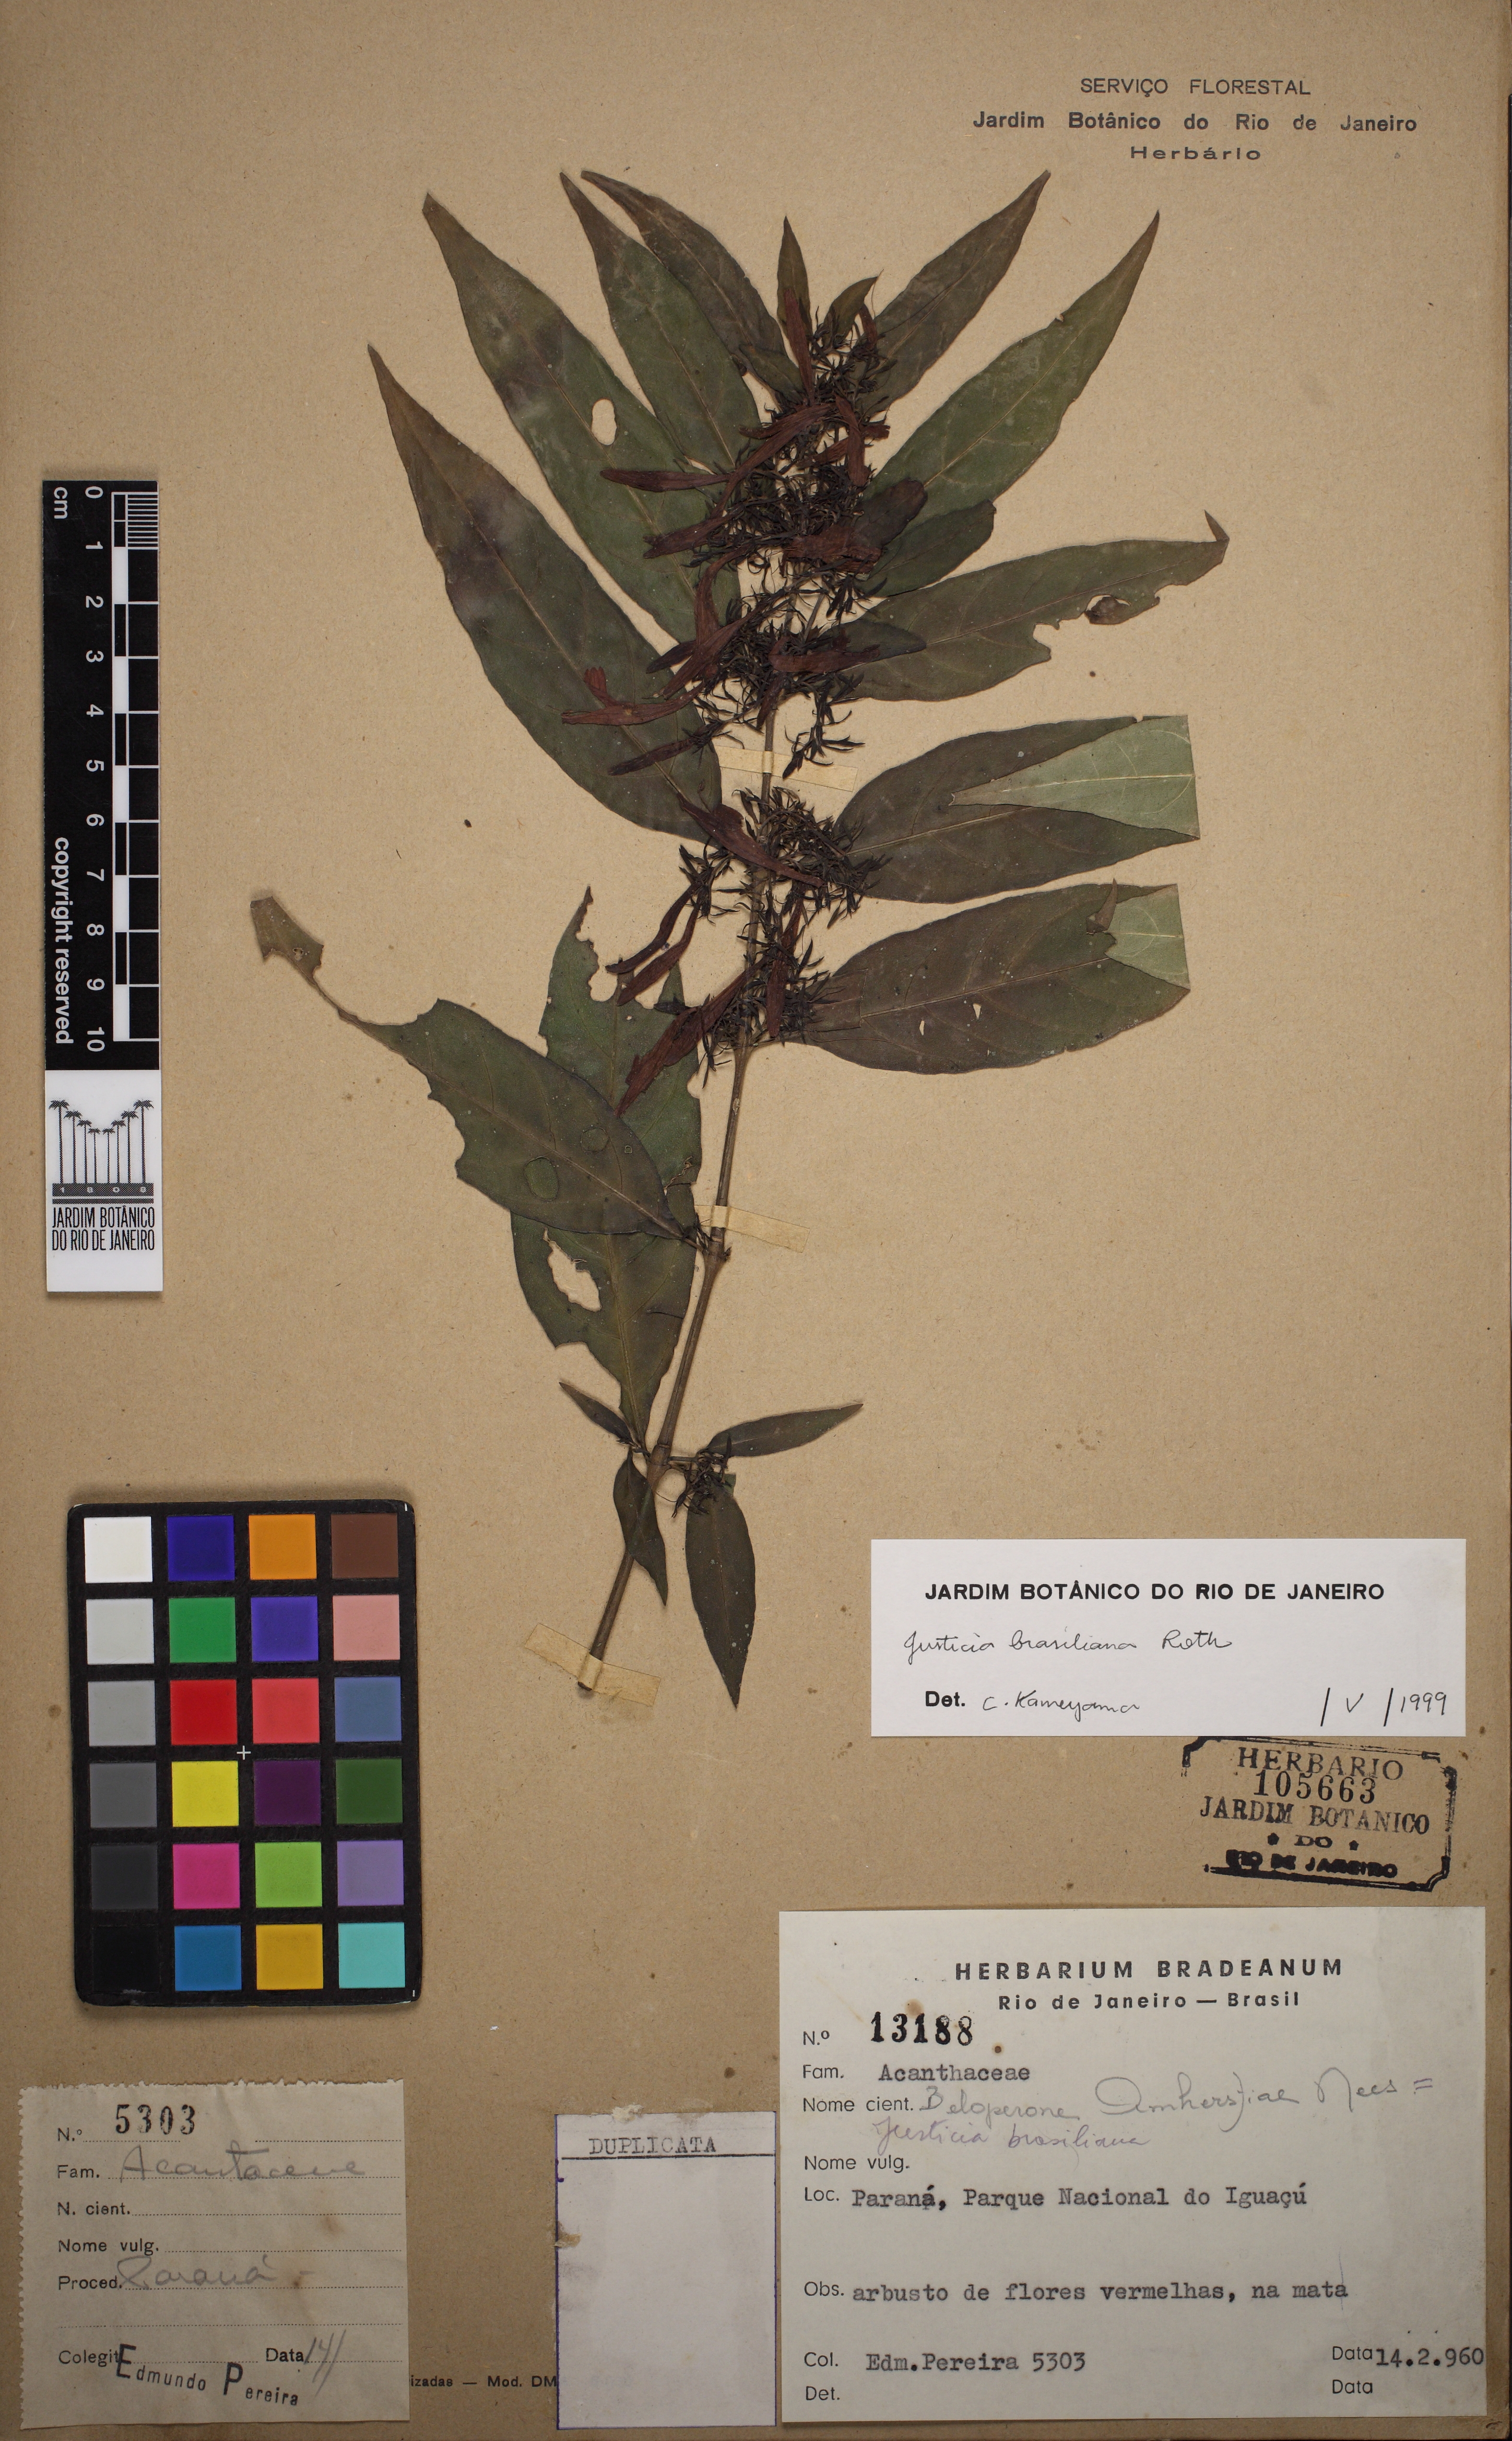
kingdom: Plantae
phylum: Tracheophyta
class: Magnoliopsida
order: Lamiales
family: Acanthaceae
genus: Justicia
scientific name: Justicia brasiliana
